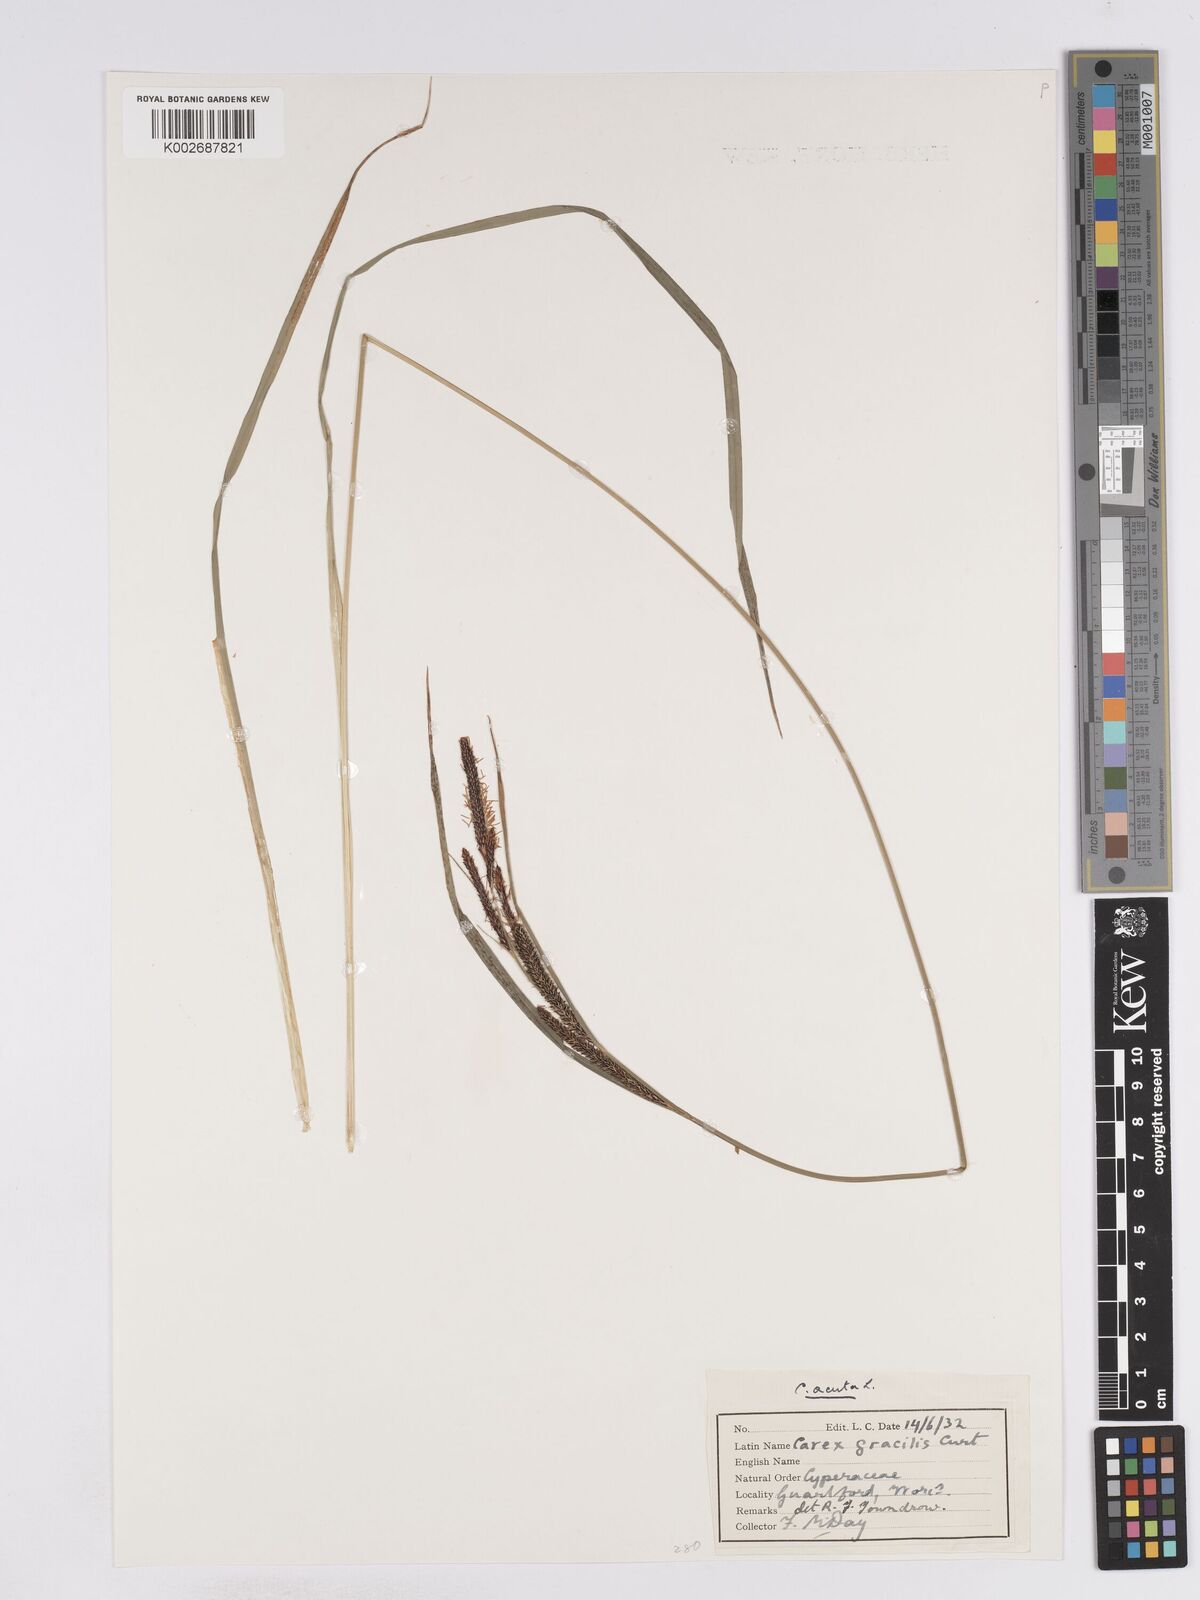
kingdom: Plantae
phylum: Tracheophyta
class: Liliopsida
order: Poales
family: Cyperaceae
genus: Carex
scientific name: Carex acuta
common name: Slender tufted-sedge
